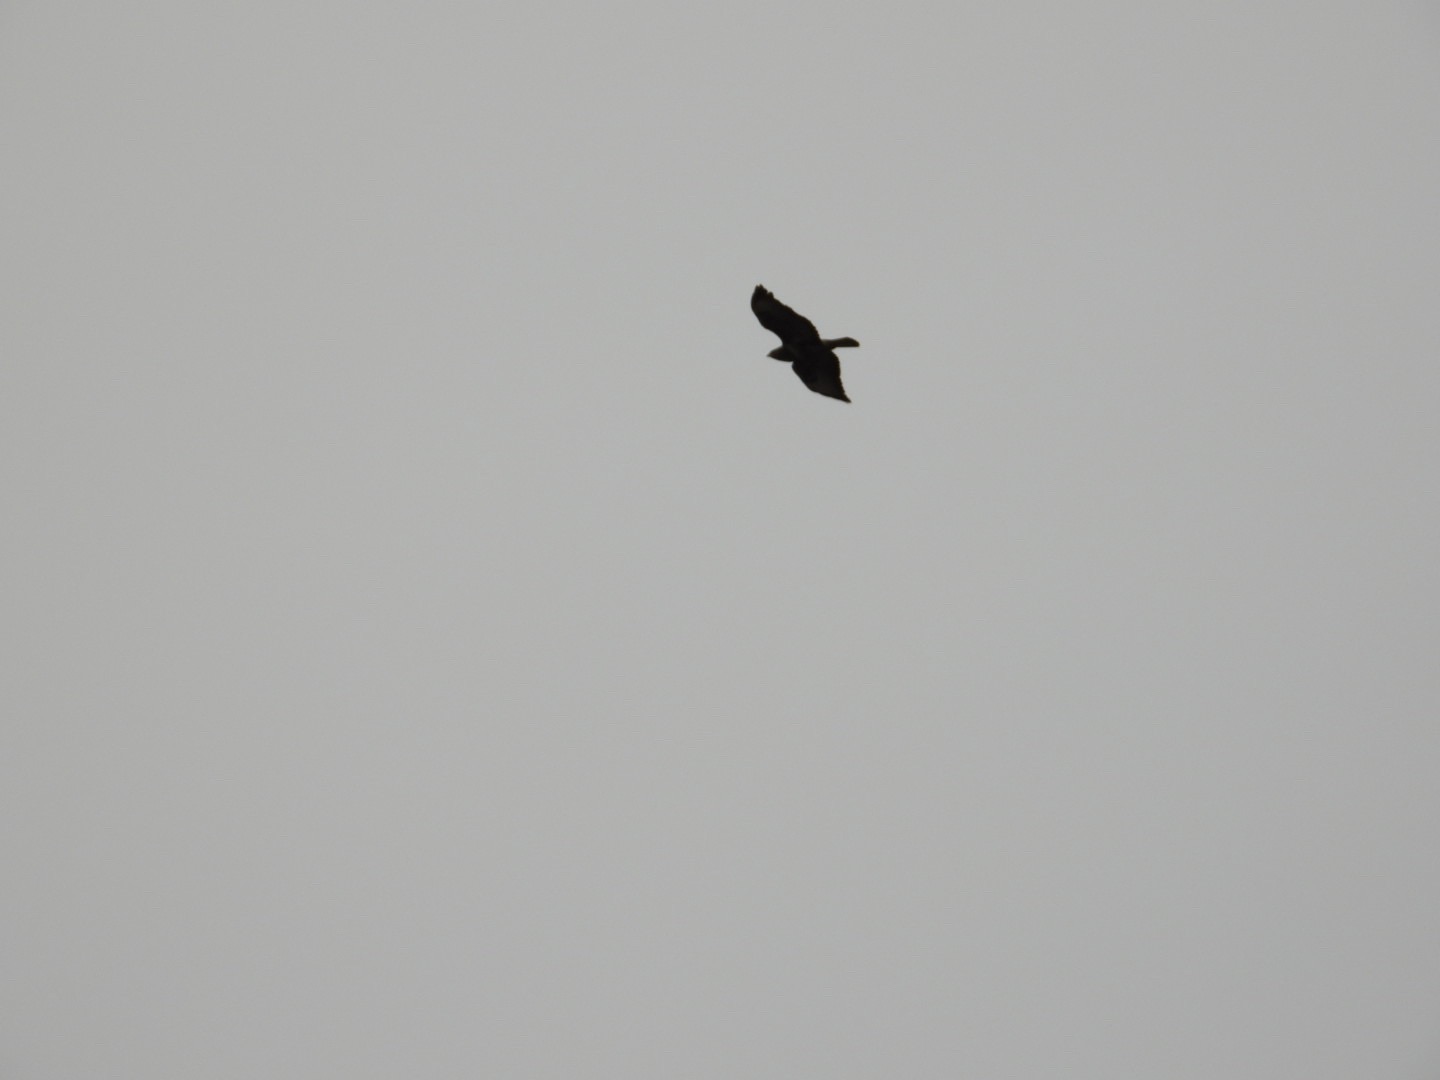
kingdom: Animalia
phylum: Chordata
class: Aves
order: Accipitriformes
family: Accipitridae
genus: Buteo
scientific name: Buteo buteo
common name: Musvåge
